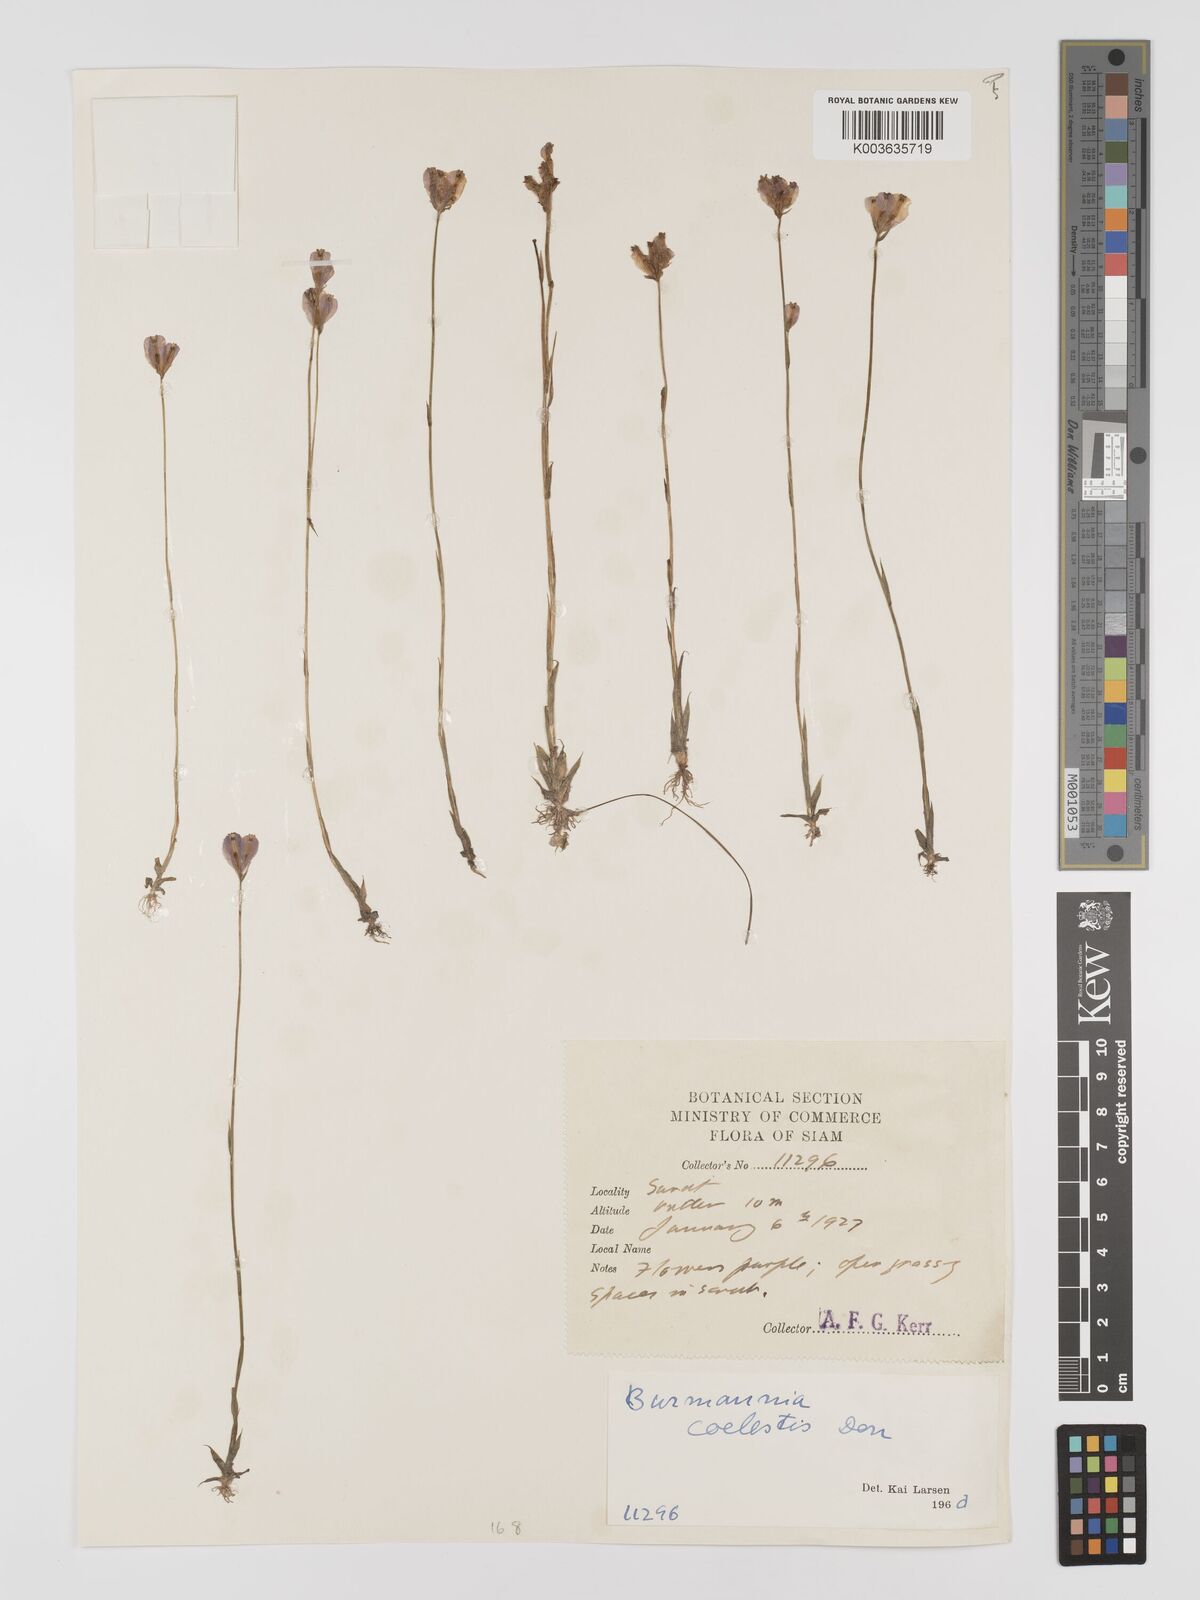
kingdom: Plantae
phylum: Tracheophyta
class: Liliopsida
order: Dioscoreales
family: Burmanniaceae
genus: Burmannia
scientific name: Burmannia coelestis
